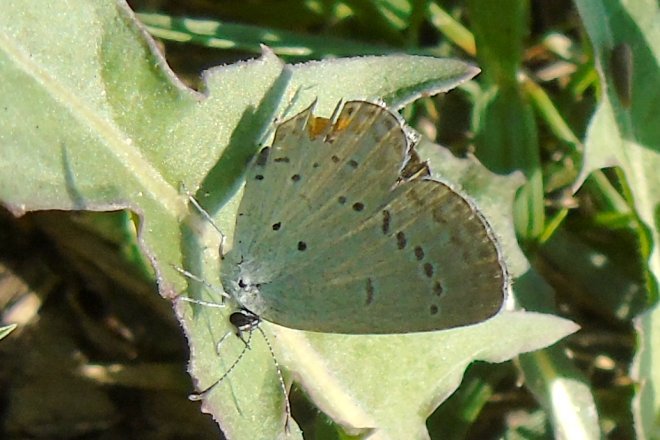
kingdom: Animalia
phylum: Arthropoda
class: Insecta
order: Lepidoptera
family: Lycaenidae
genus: Elkalyce
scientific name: Elkalyce comyntas
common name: Eastern Tailed-Blue
